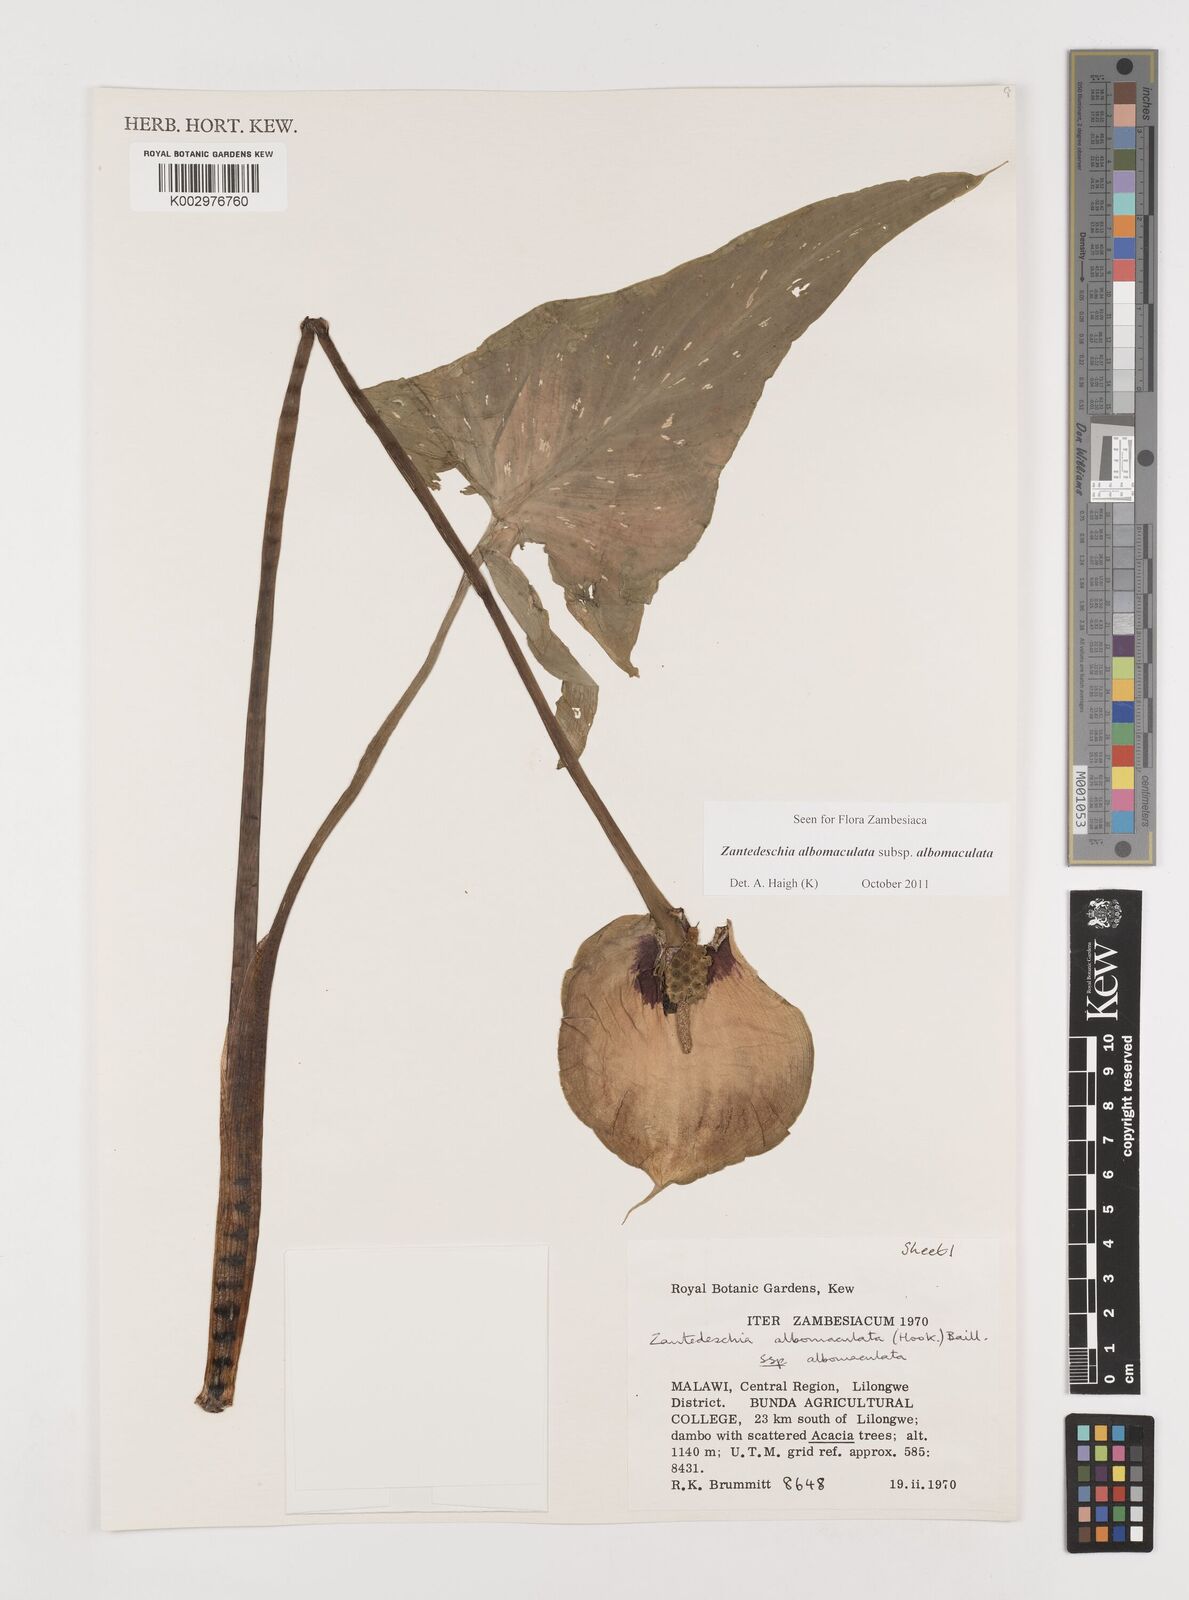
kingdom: Plantae
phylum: Tracheophyta
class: Liliopsida
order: Alismatales
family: Araceae
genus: Zantedeschia
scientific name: Zantedeschia albomaculata
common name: Spotted calla lily
